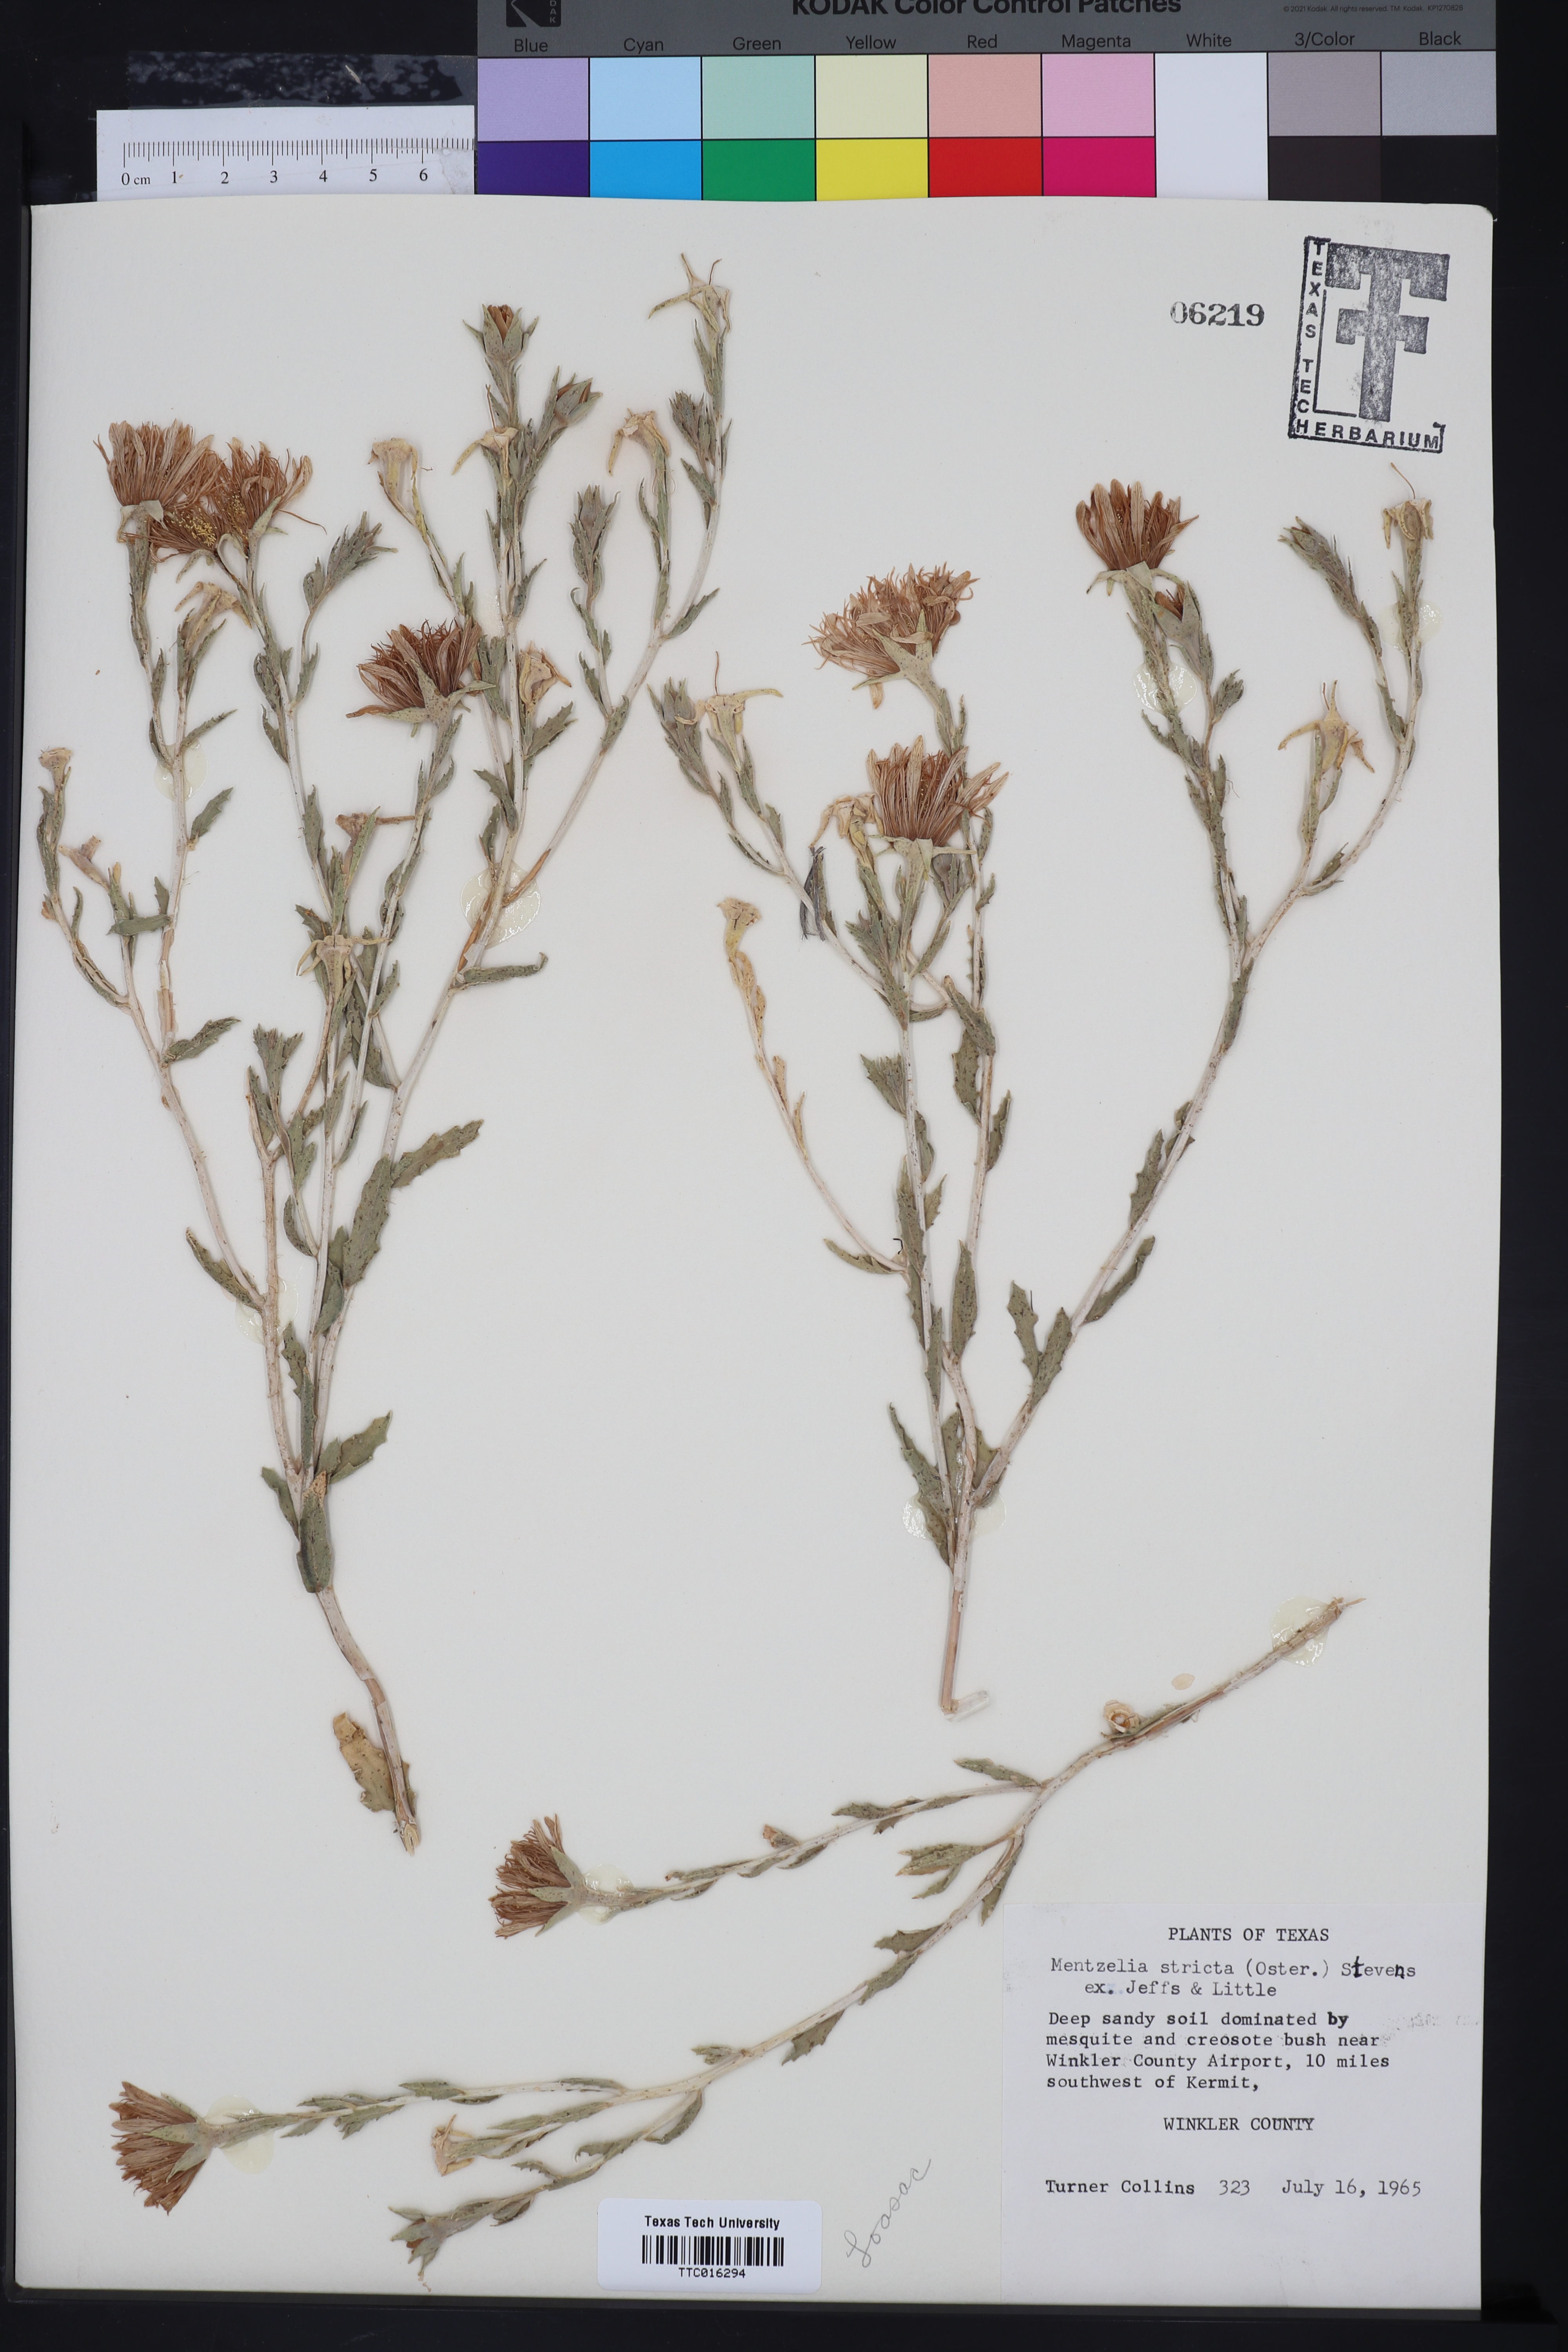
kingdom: Plantae
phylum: Tracheophyta
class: Magnoliopsida
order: Cornales
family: Loasaceae
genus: Mentzelia
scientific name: Mentzelia nuda
